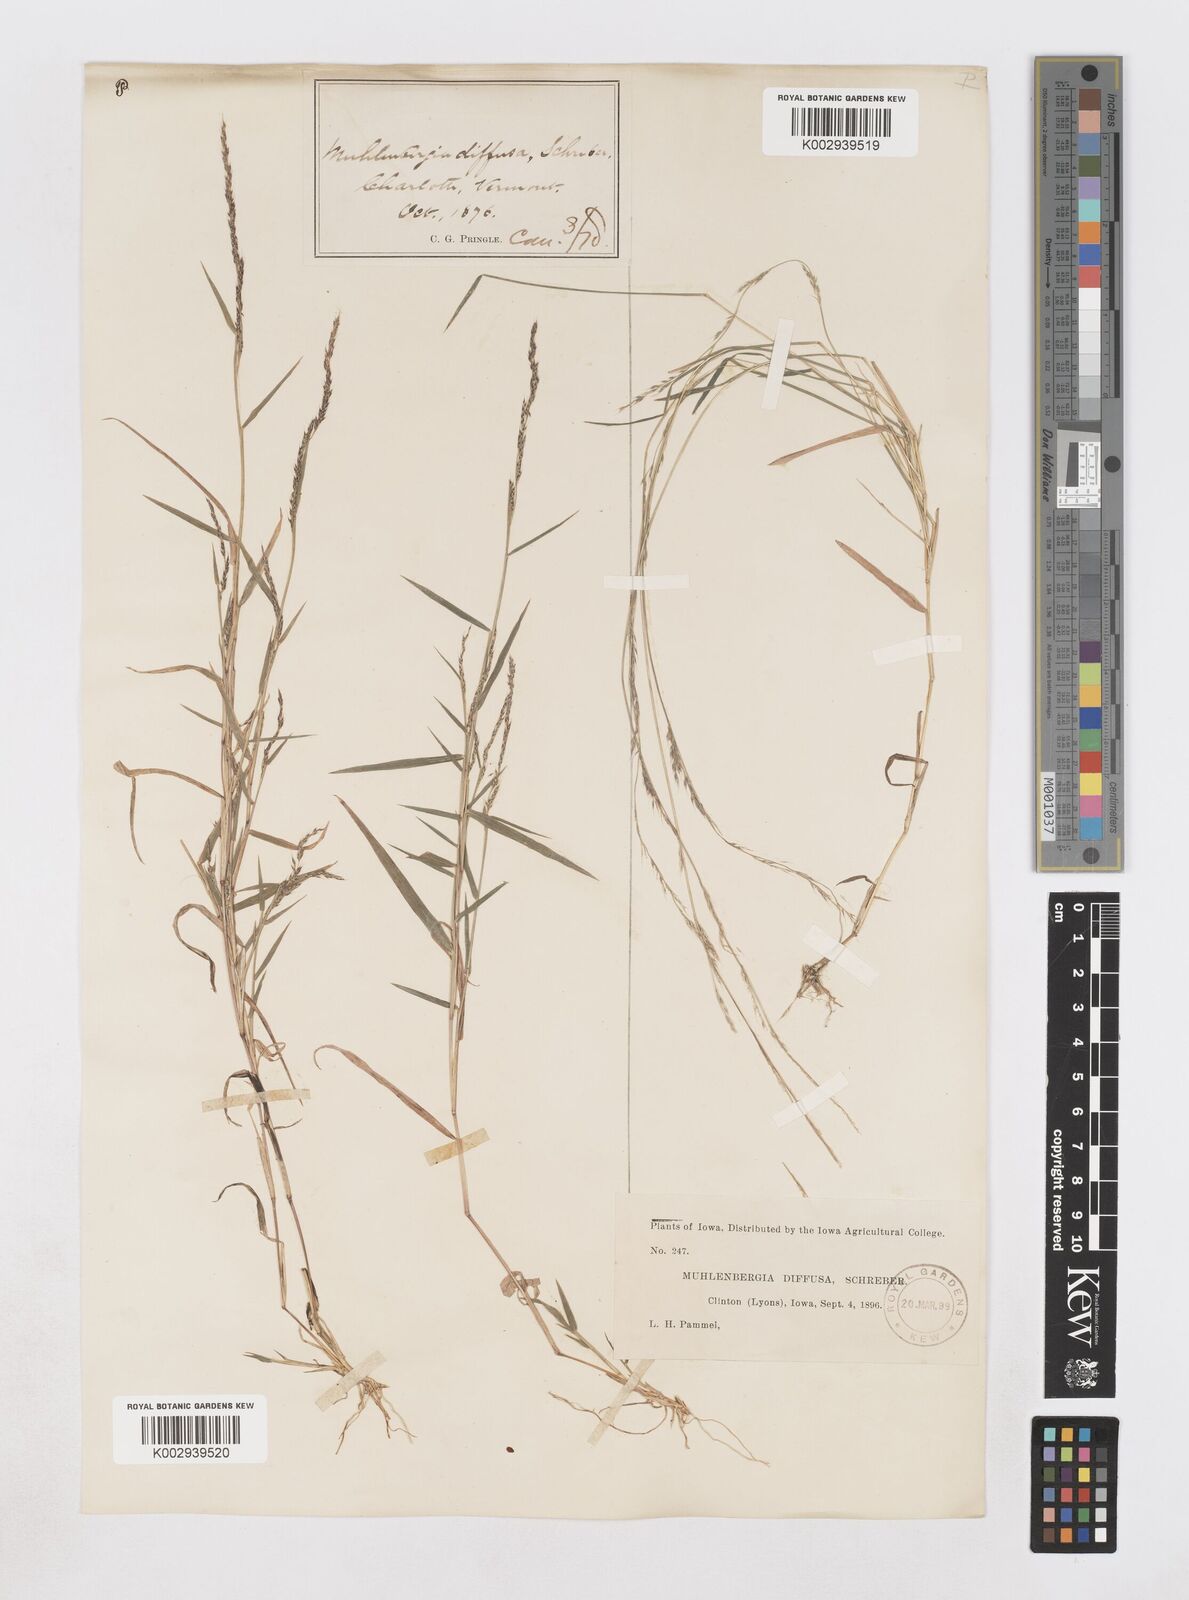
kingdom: Plantae
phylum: Tracheophyta
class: Liliopsida
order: Poales
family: Poaceae
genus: Muhlenbergia
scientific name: Muhlenbergia schreberi
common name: Nimblewill
